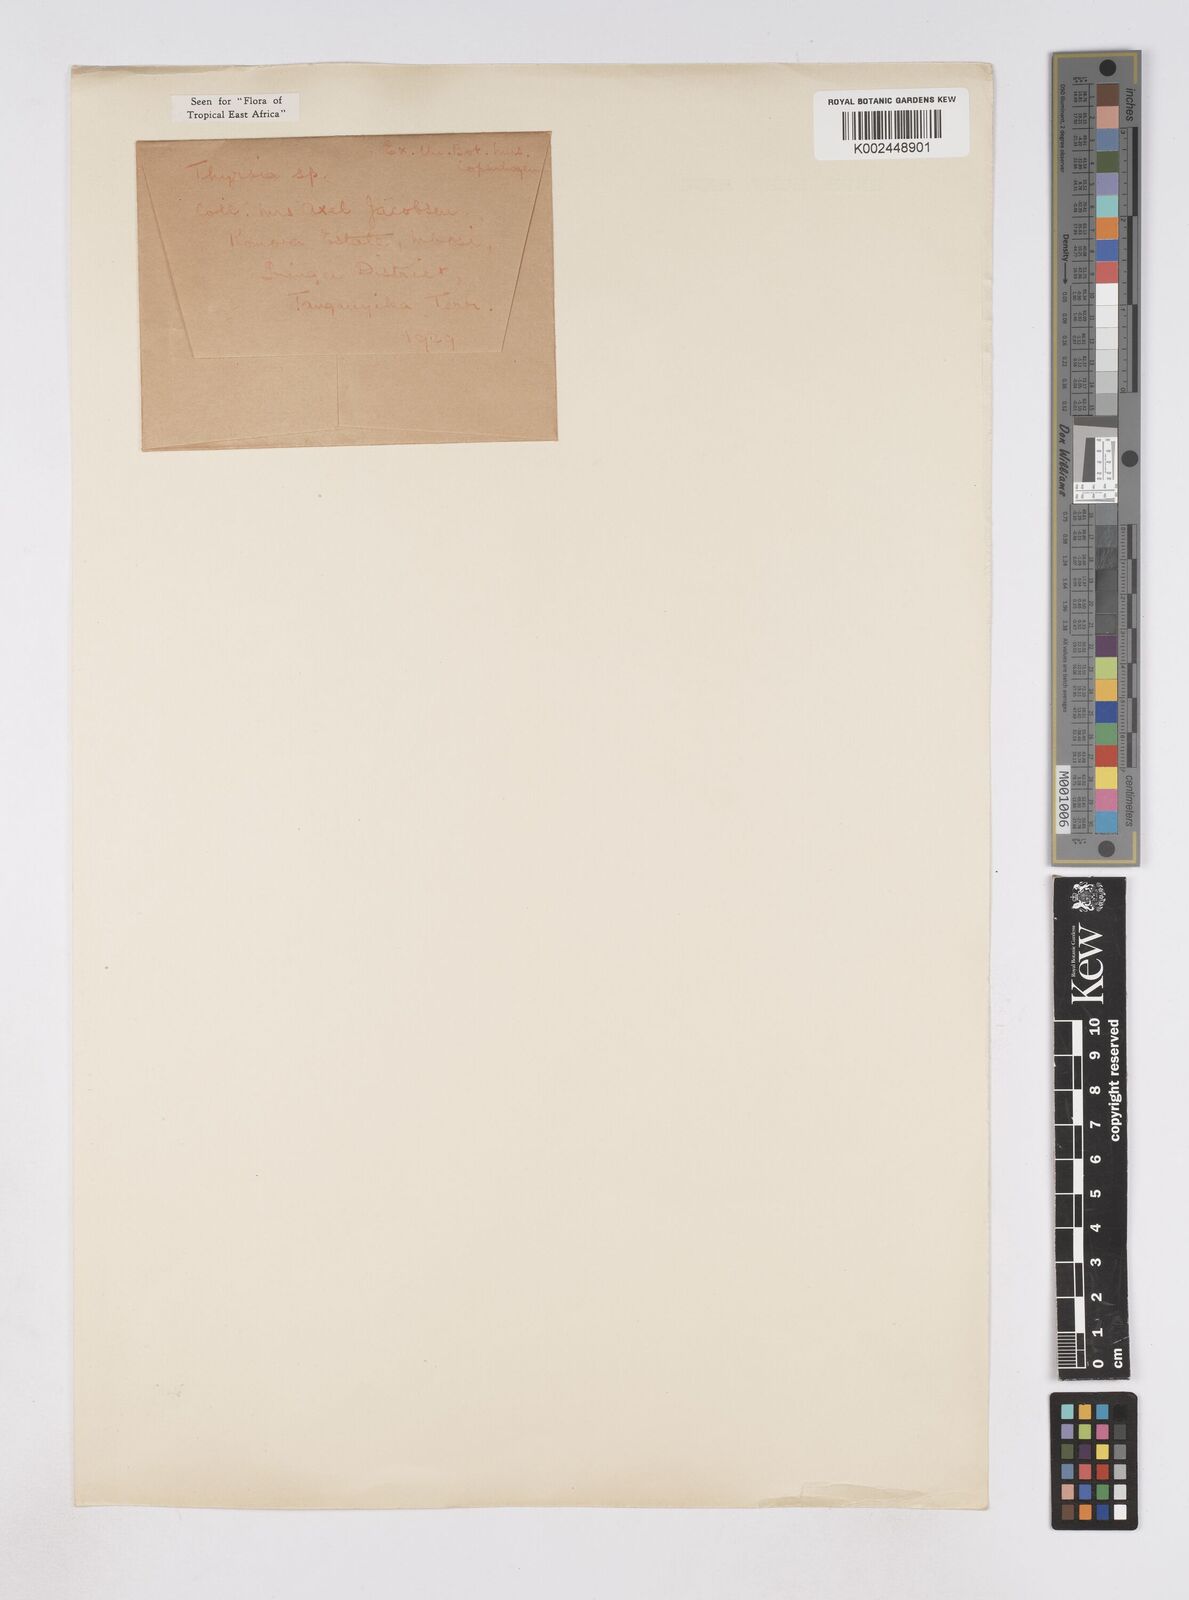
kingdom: Plantae
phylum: Tracheophyta
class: Liliopsida
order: Poales
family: Poaceae
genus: Thyrsia
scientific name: Thyrsia huillensis
